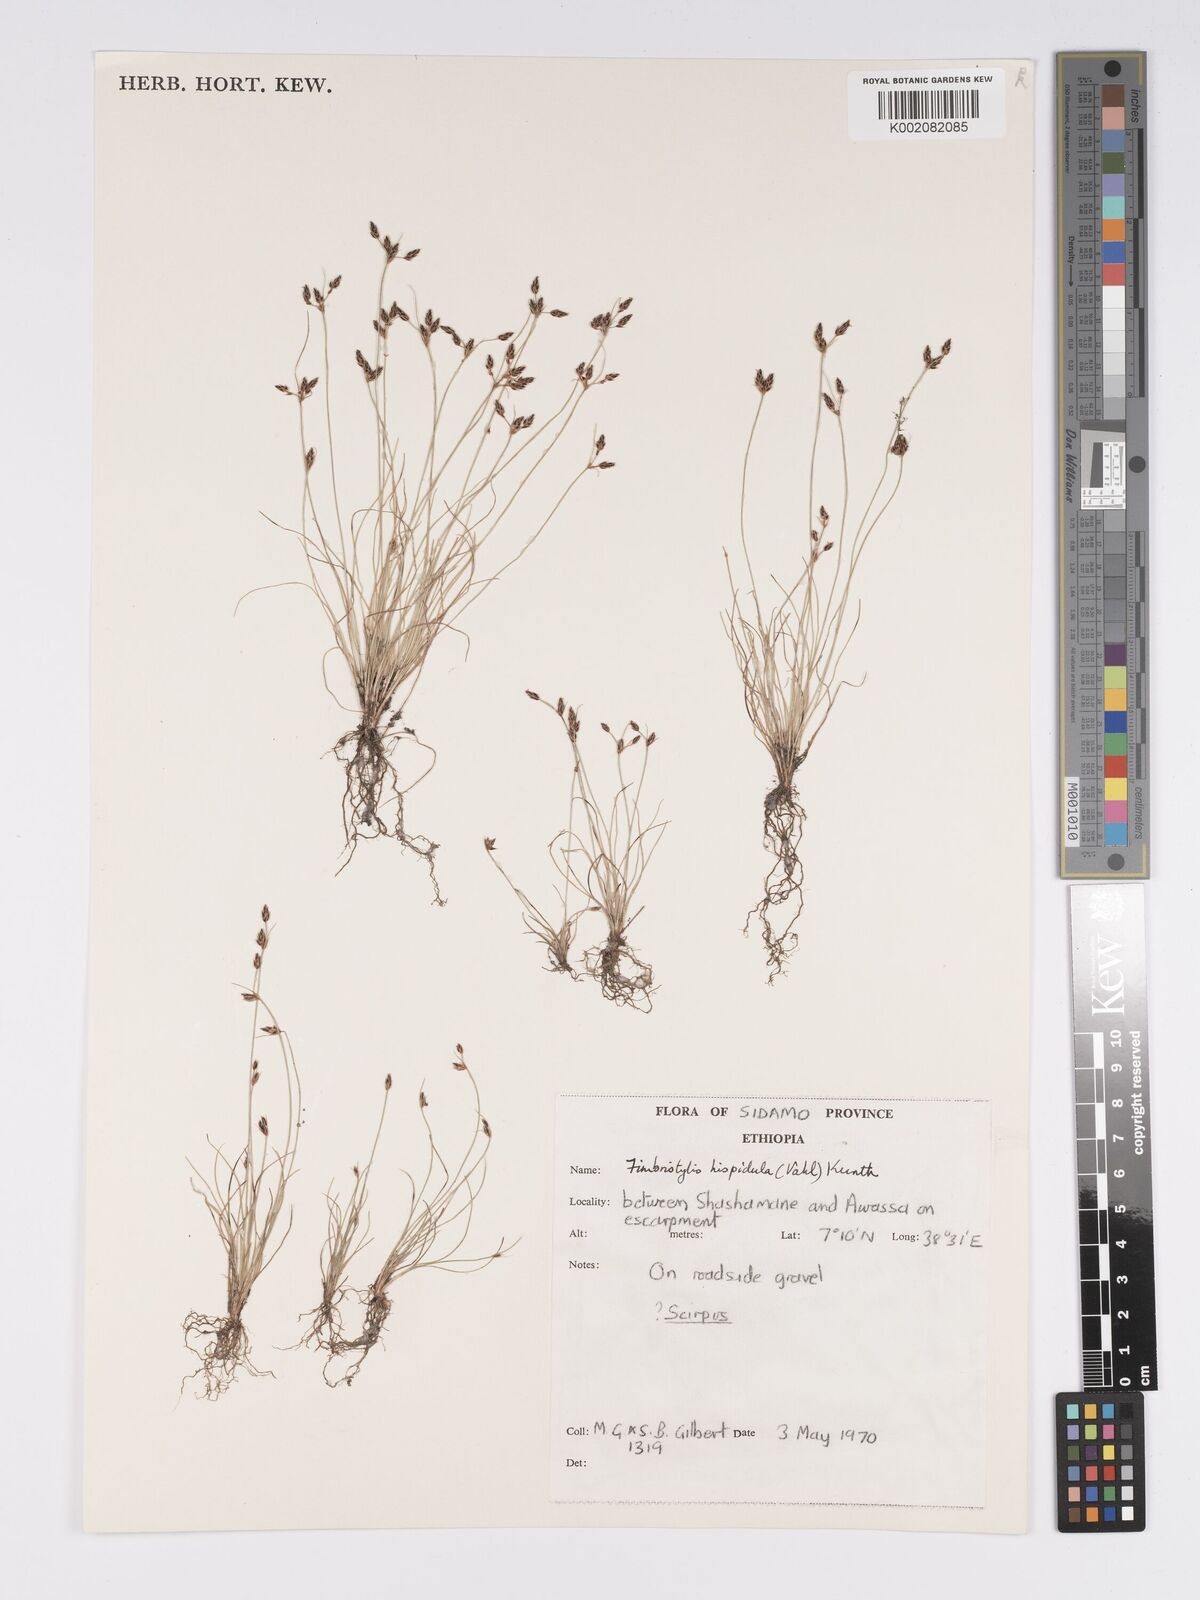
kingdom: Plantae
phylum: Tracheophyta
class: Liliopsida
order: Poales
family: Cyperaceae
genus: Bulbostylis
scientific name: Bulbostylis hispidula
